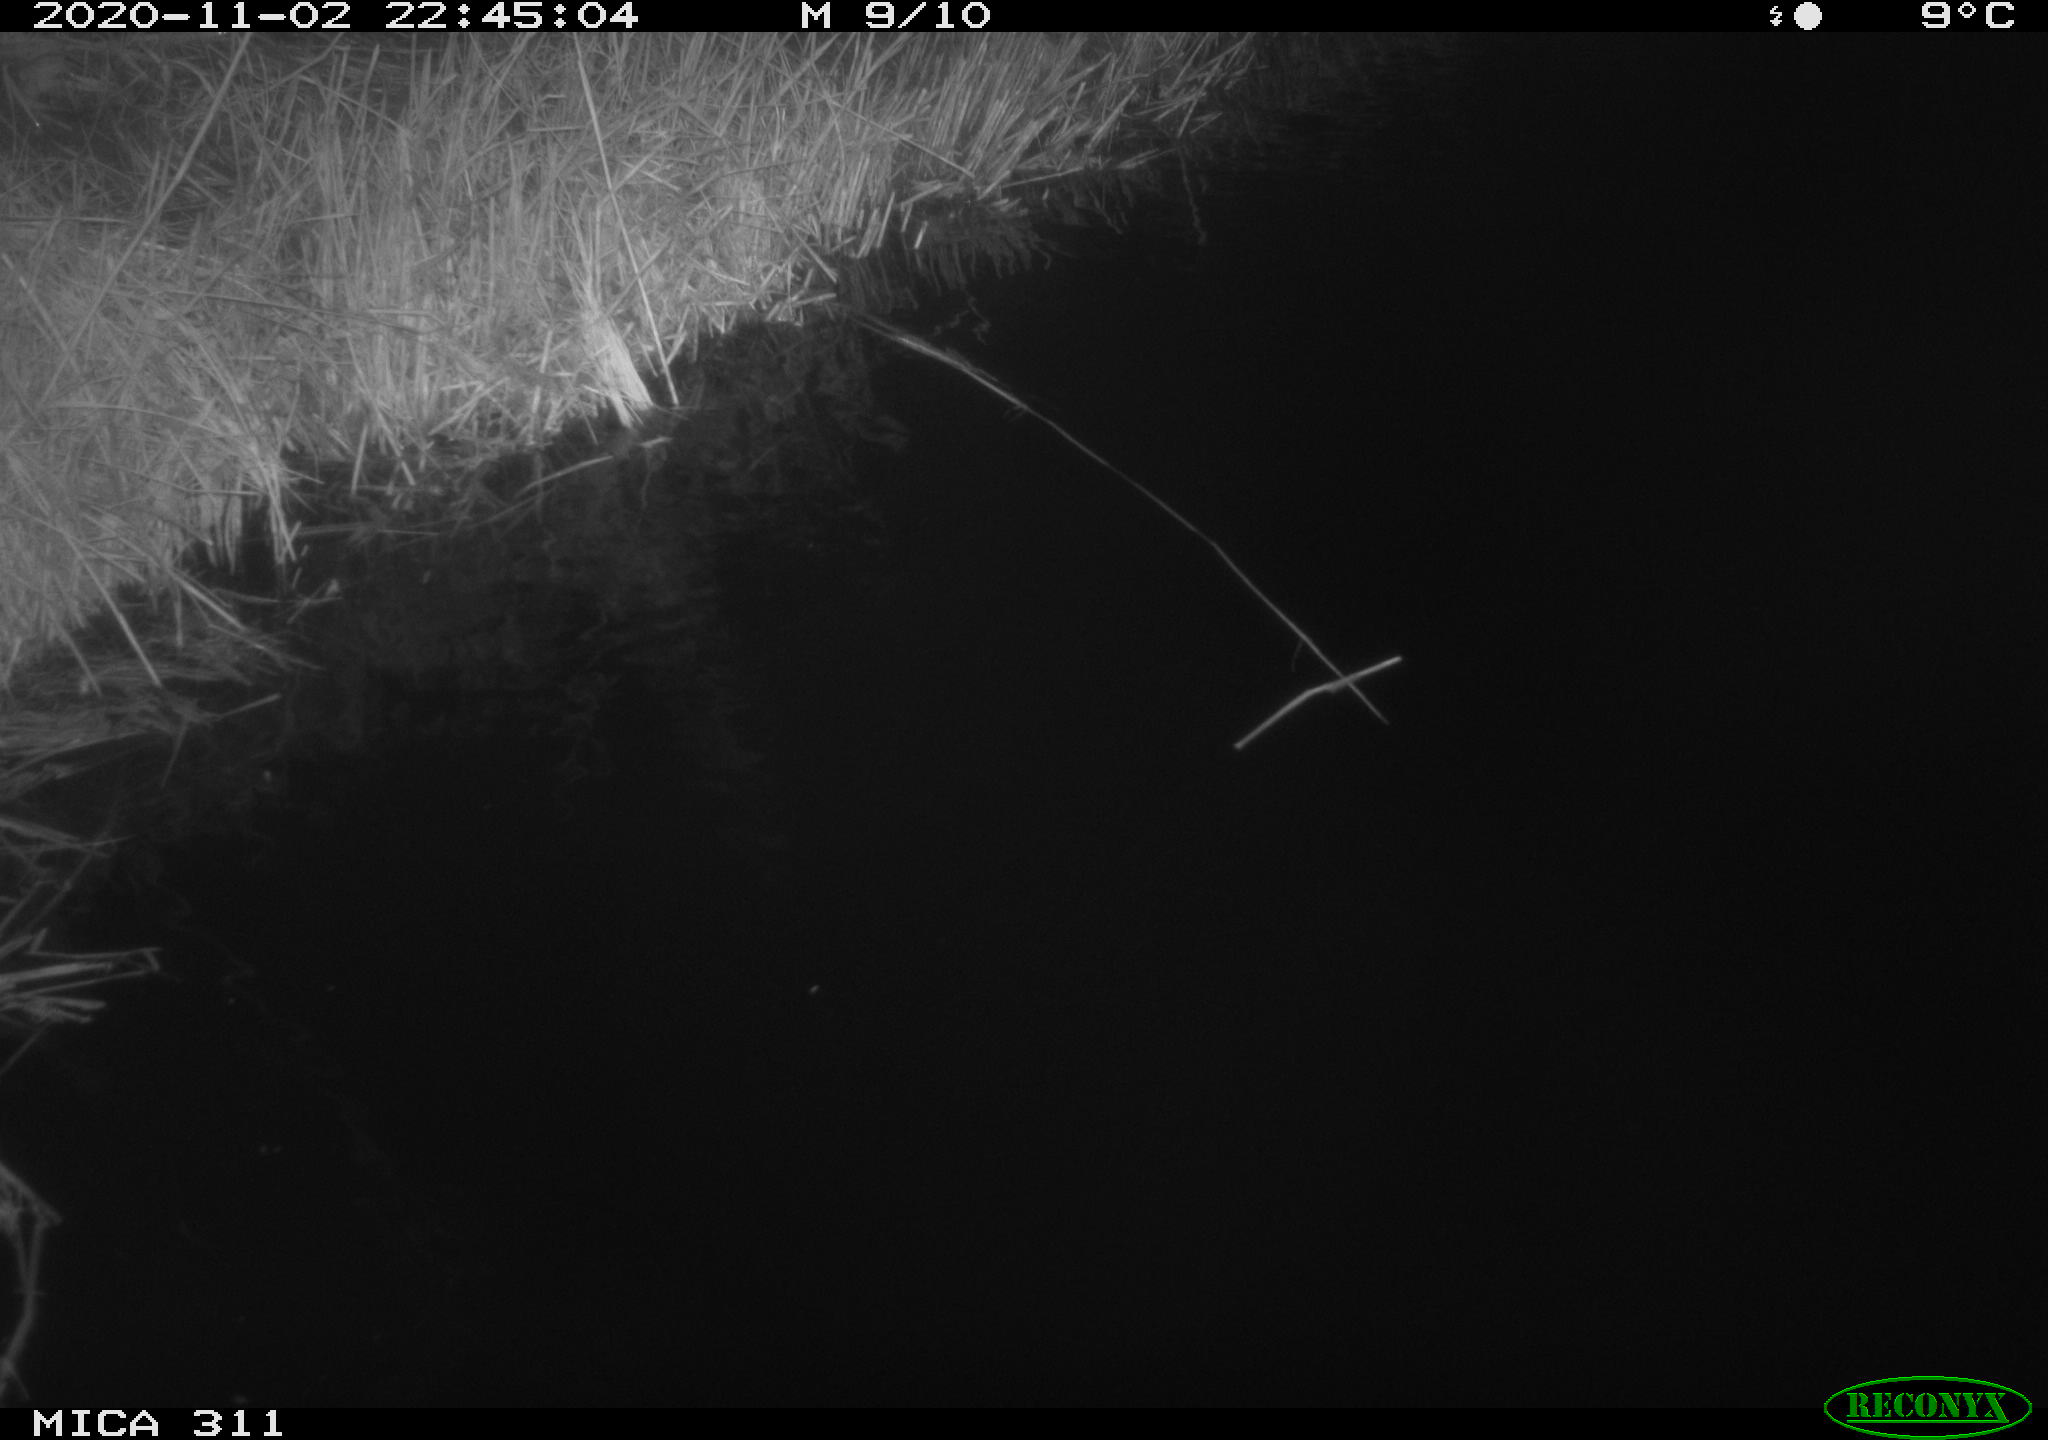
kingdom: Animalia
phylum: Chordata
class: Mammalia
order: Rodentia
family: Muridae
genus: Rattus
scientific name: Rattus norvegicus
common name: Brown rat
